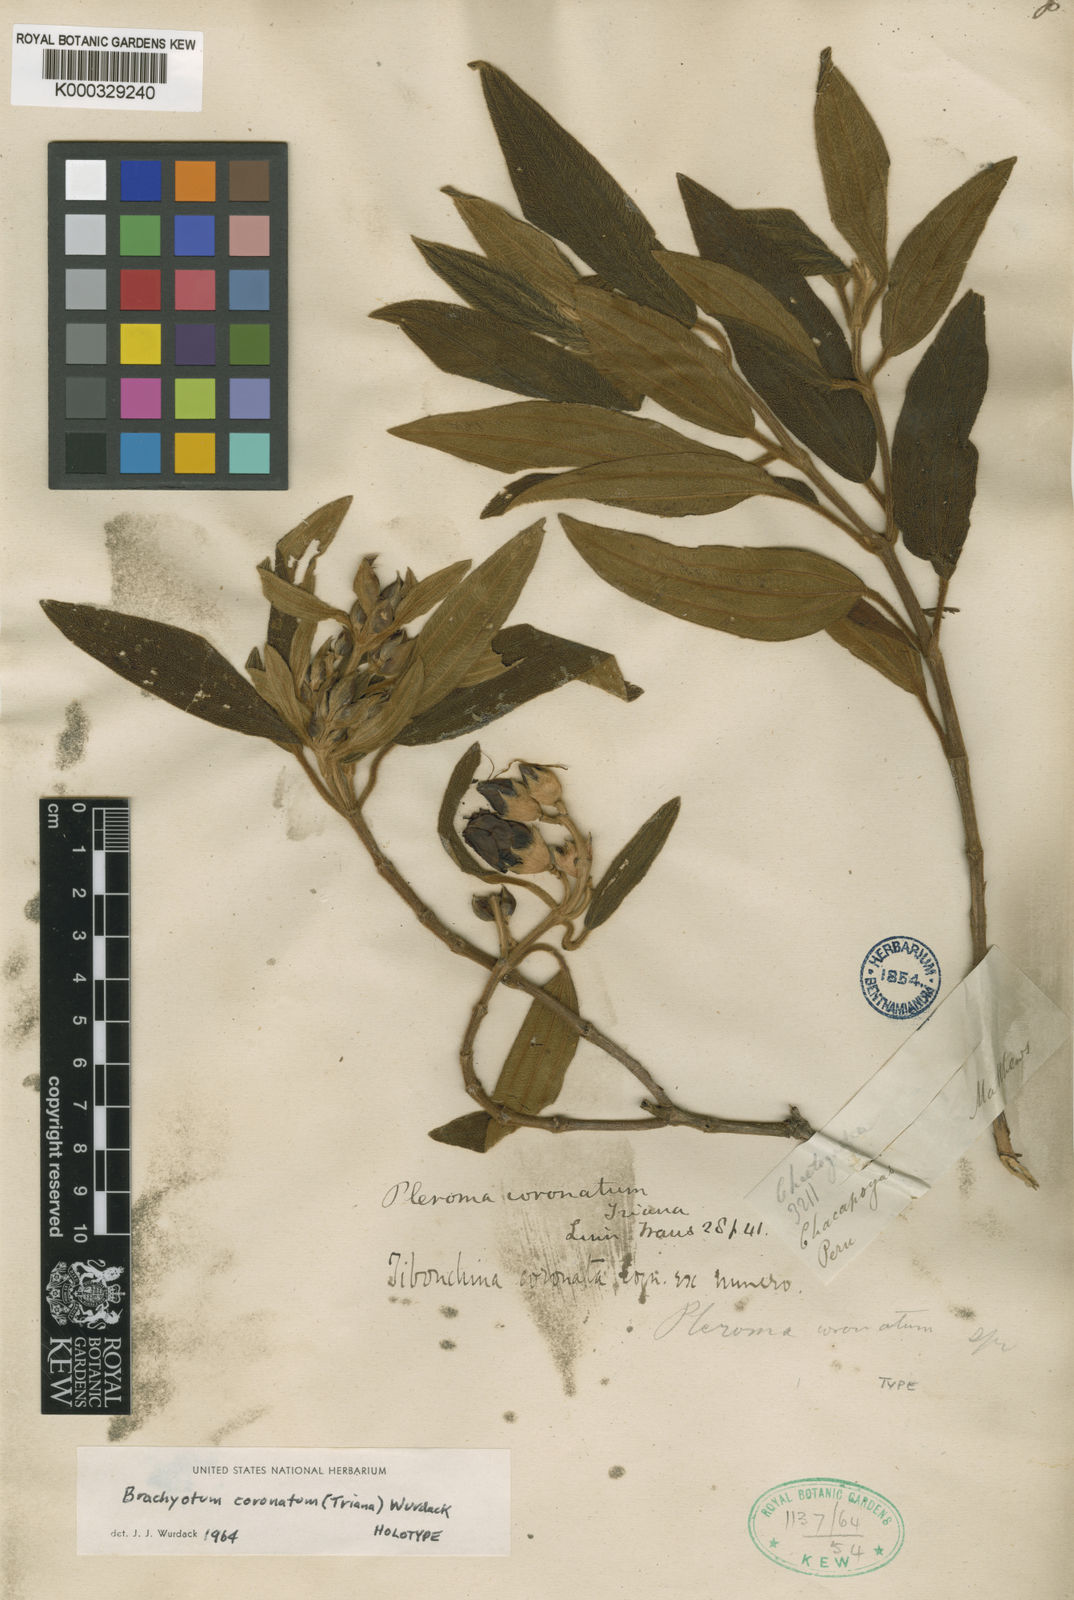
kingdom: Plantae
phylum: Tracheophyta
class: Magnoliopsida
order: Myrtales
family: Melastomataceae
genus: Brachyotum
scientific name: Brachyotum coronatum
